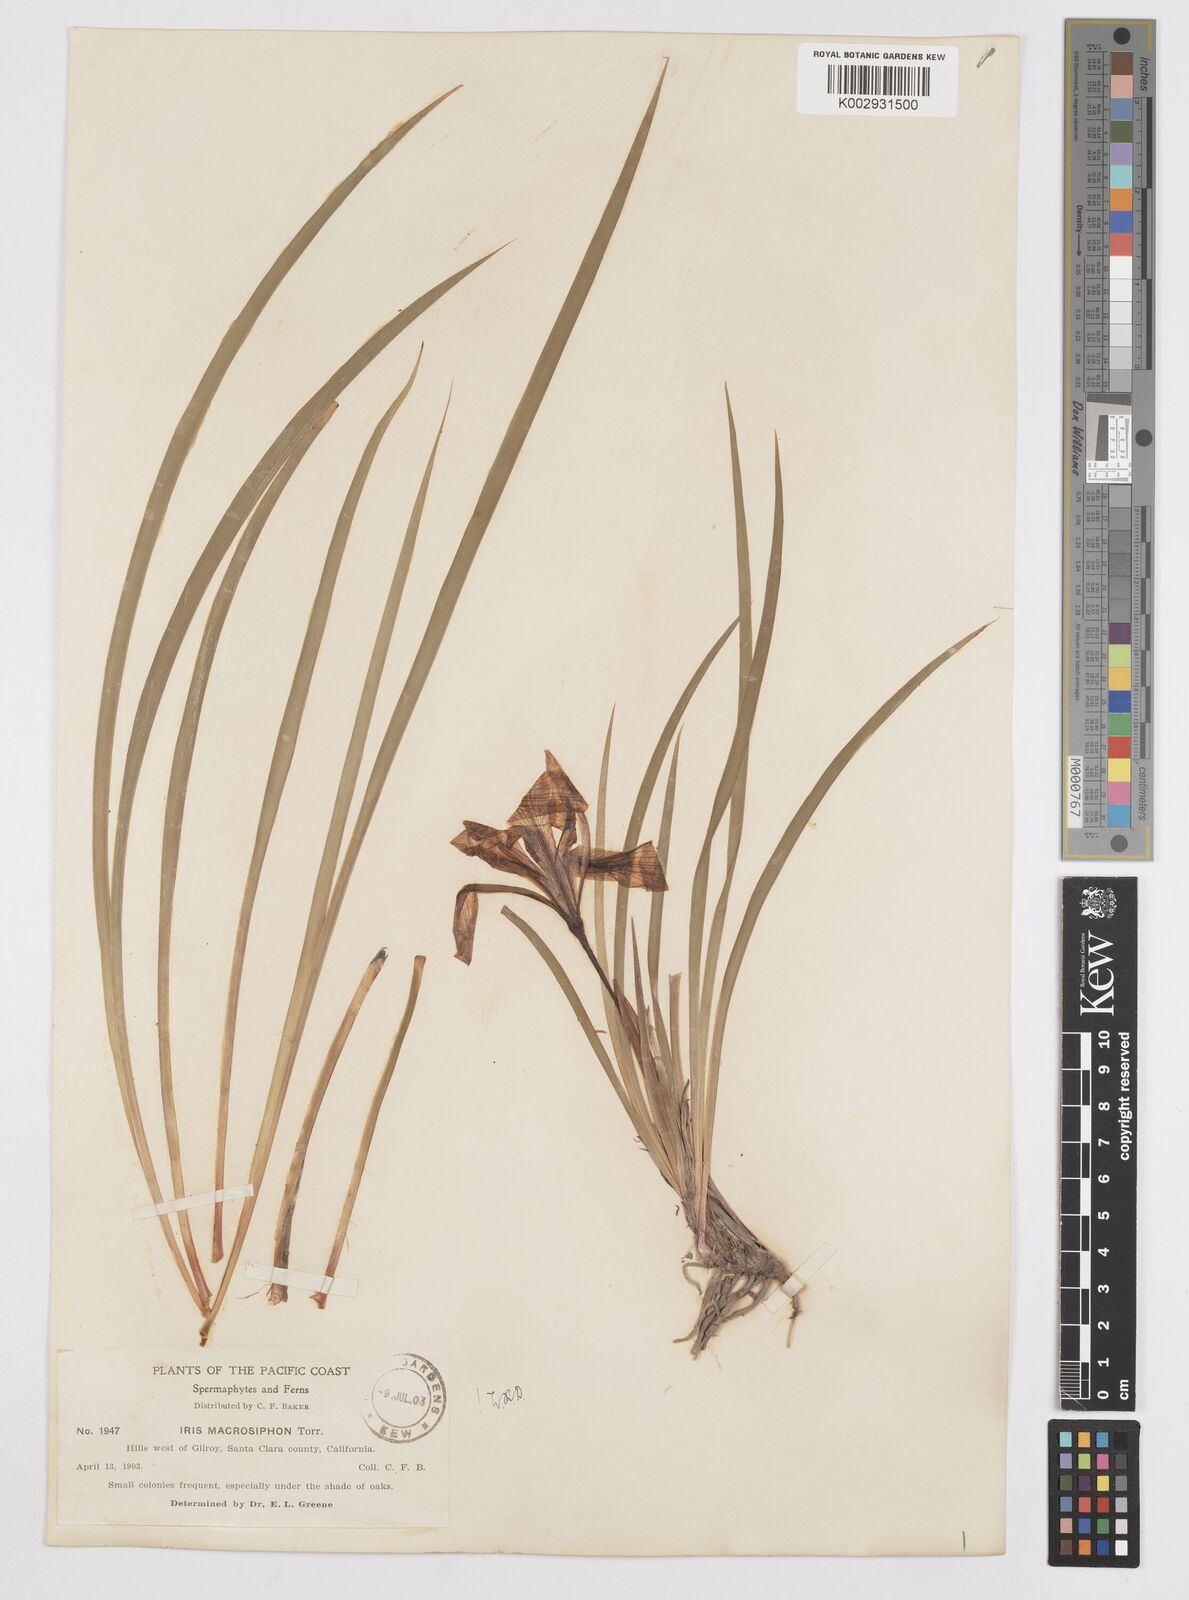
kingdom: Plantae
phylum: Tracheophyta
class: Liliopsida
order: Asparagales
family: Iridaceae
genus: Iris
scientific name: Iris macrosiphon
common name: Ground iris
